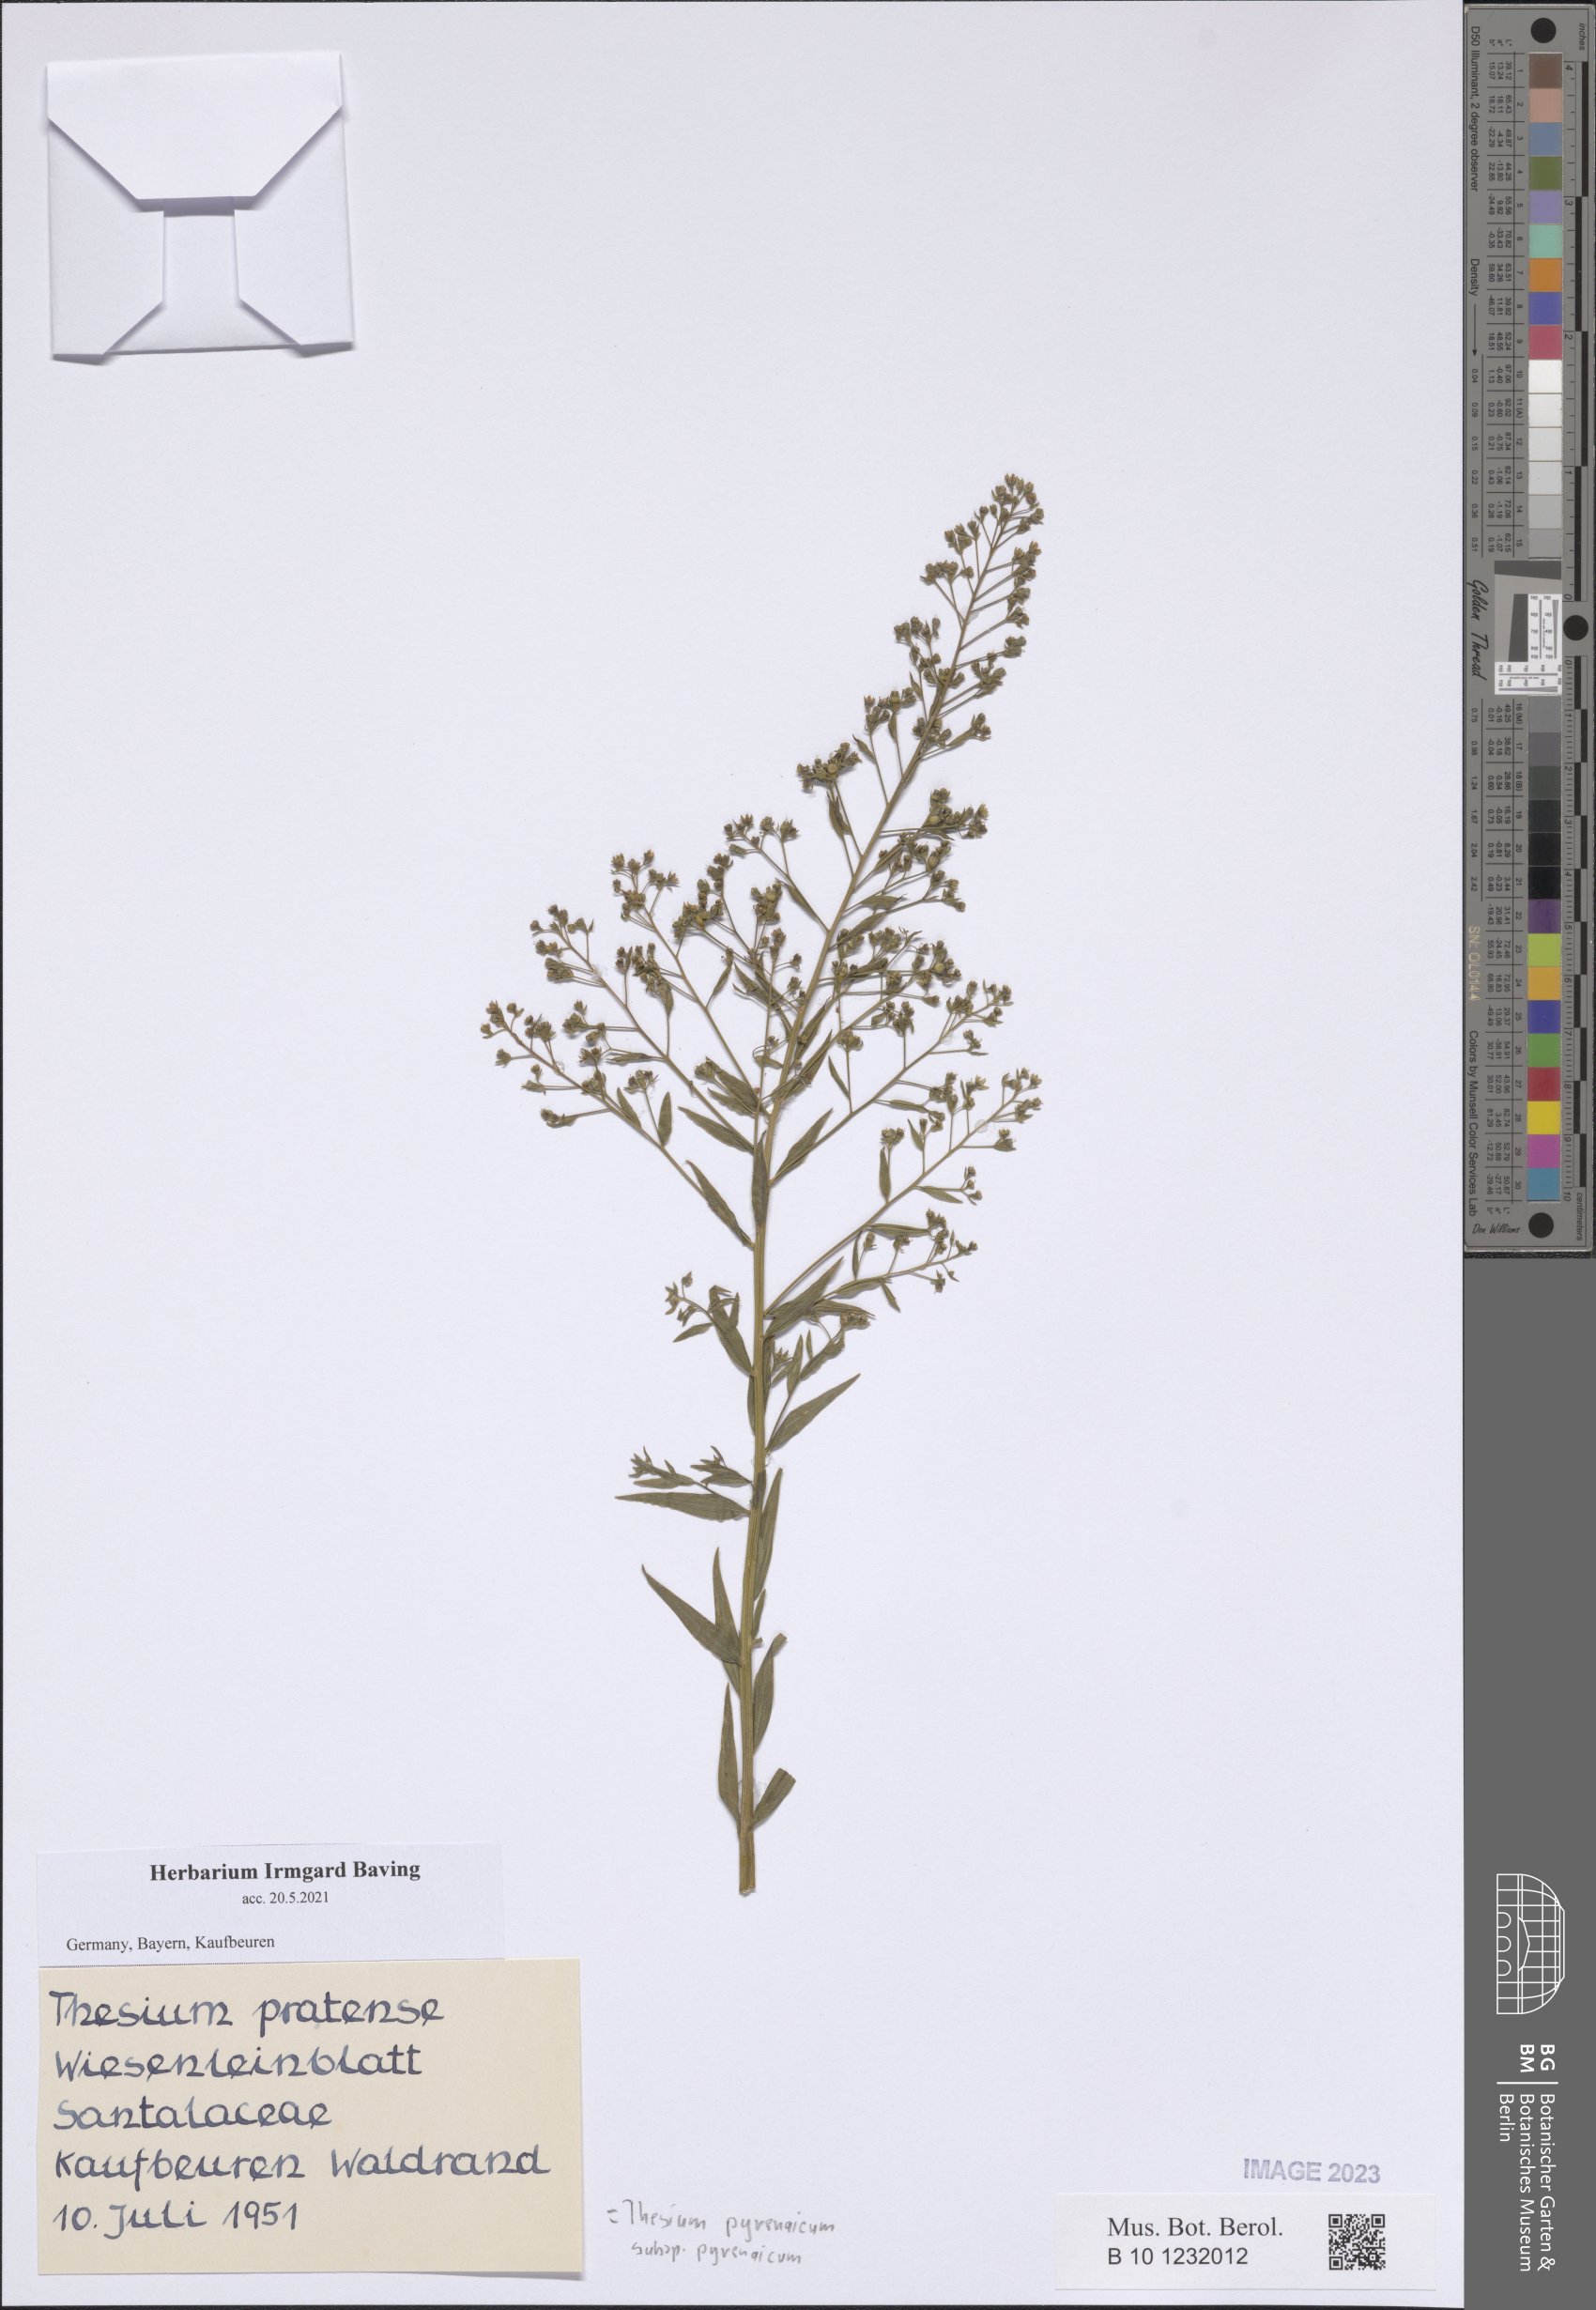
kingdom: Plantae
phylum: Tracheophyta
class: Magnoliopsida
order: Santalales
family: Thesiaceae
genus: Thesium
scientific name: Thesium pyrenaicum
